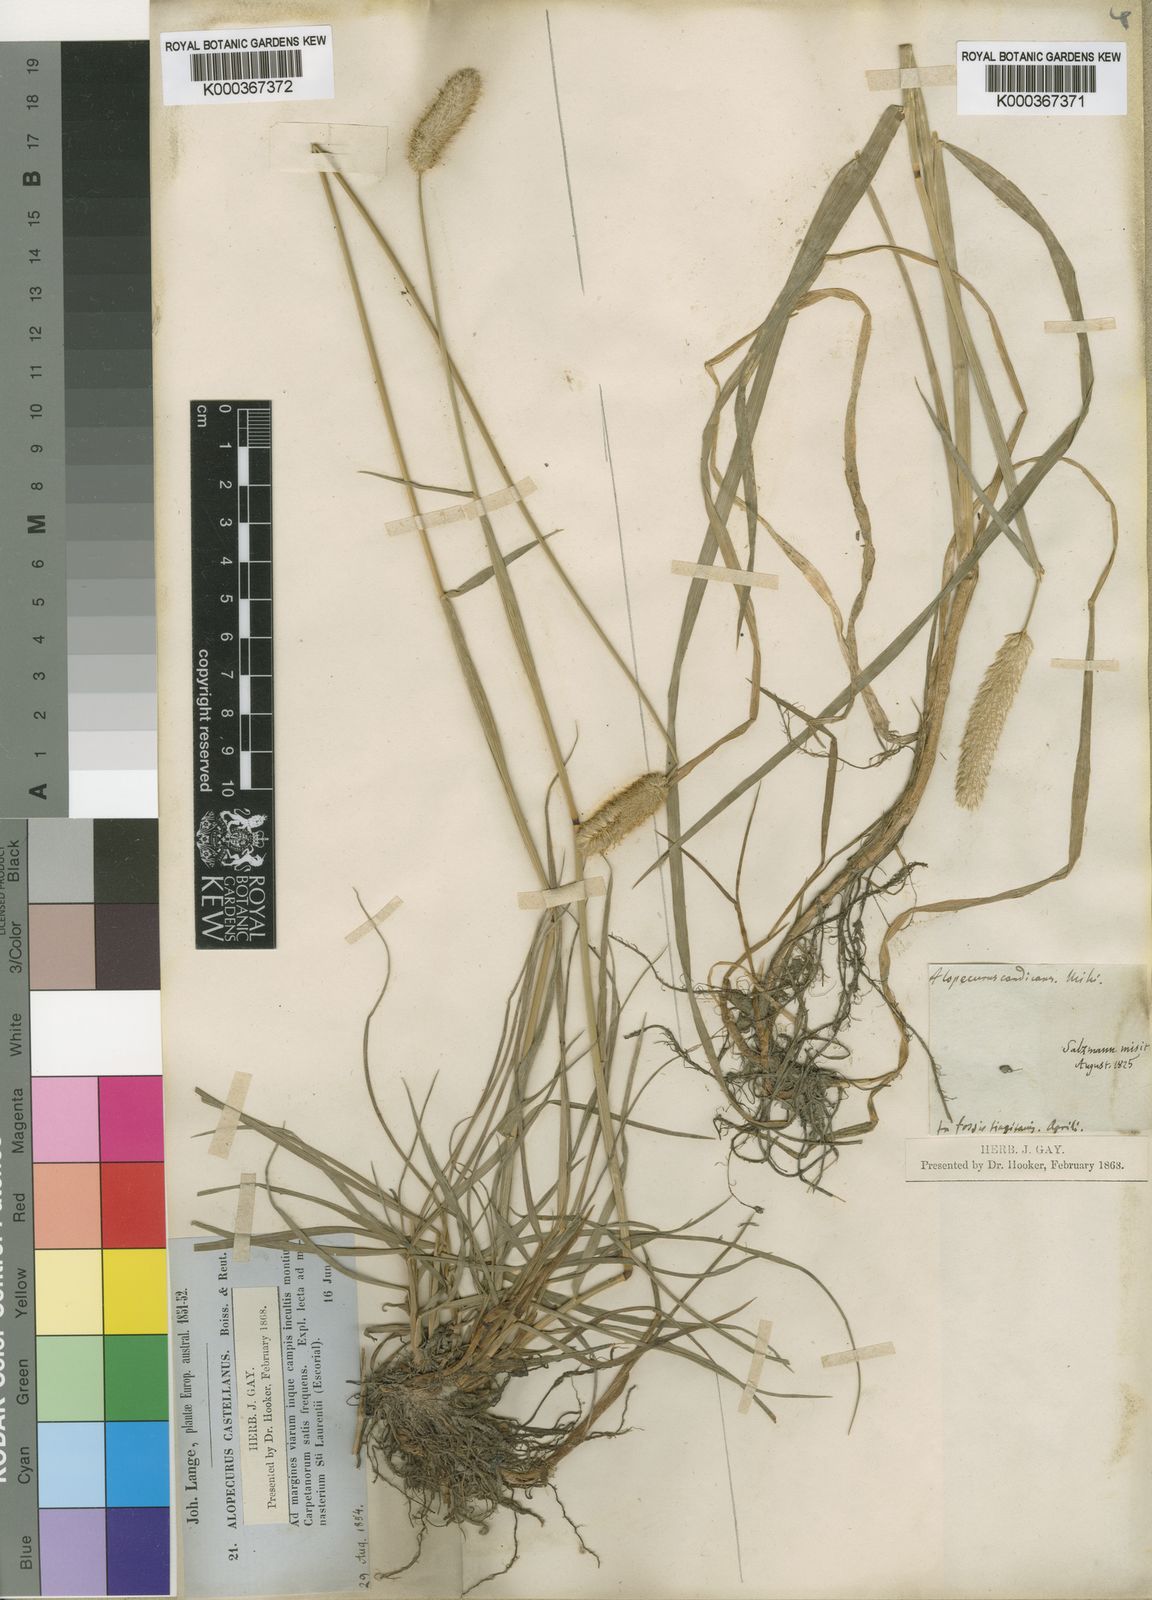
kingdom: Plantae
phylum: Tracheophyta
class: Liliopsida
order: Poales
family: Poaceae
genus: Alopecurus
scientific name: Alopecurus baptarrhenius
